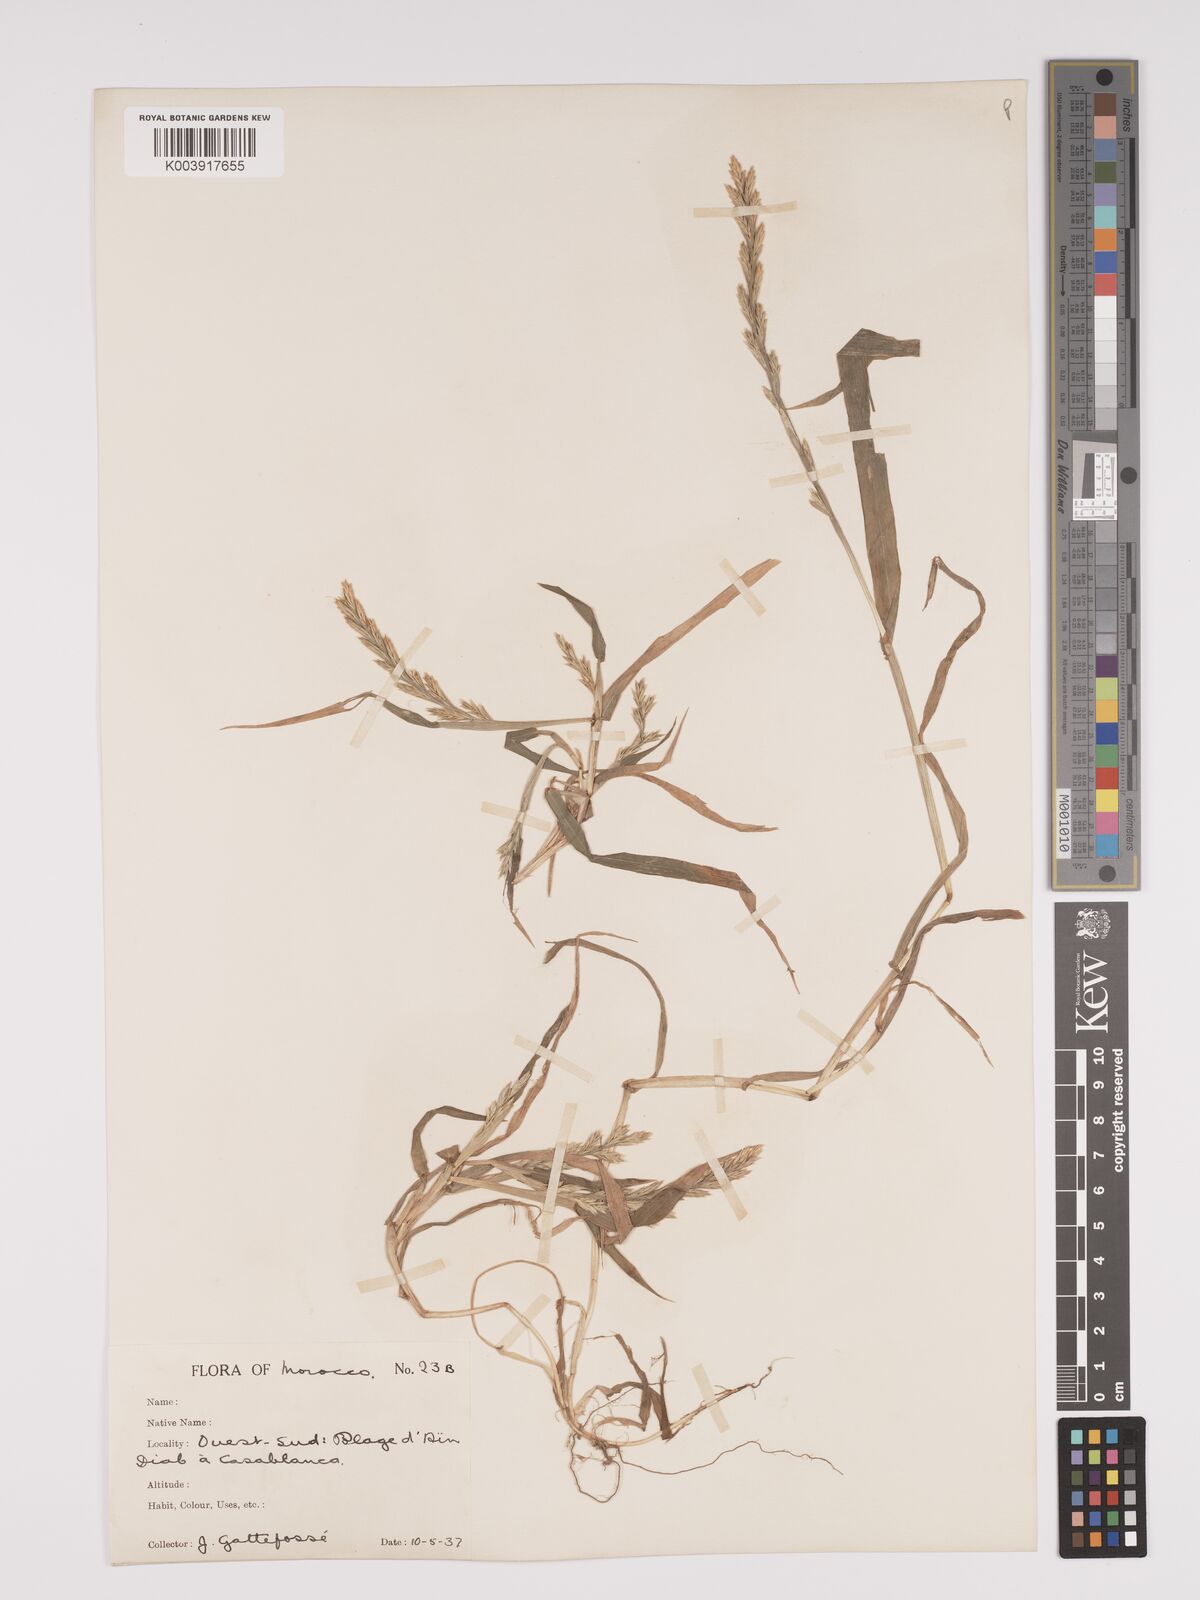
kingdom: Plantae
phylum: Tracheophyta
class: Liliopsida
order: Poales
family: Poaceae
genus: Lolium
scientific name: Lolium multiflorum
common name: Annual ryegrass
